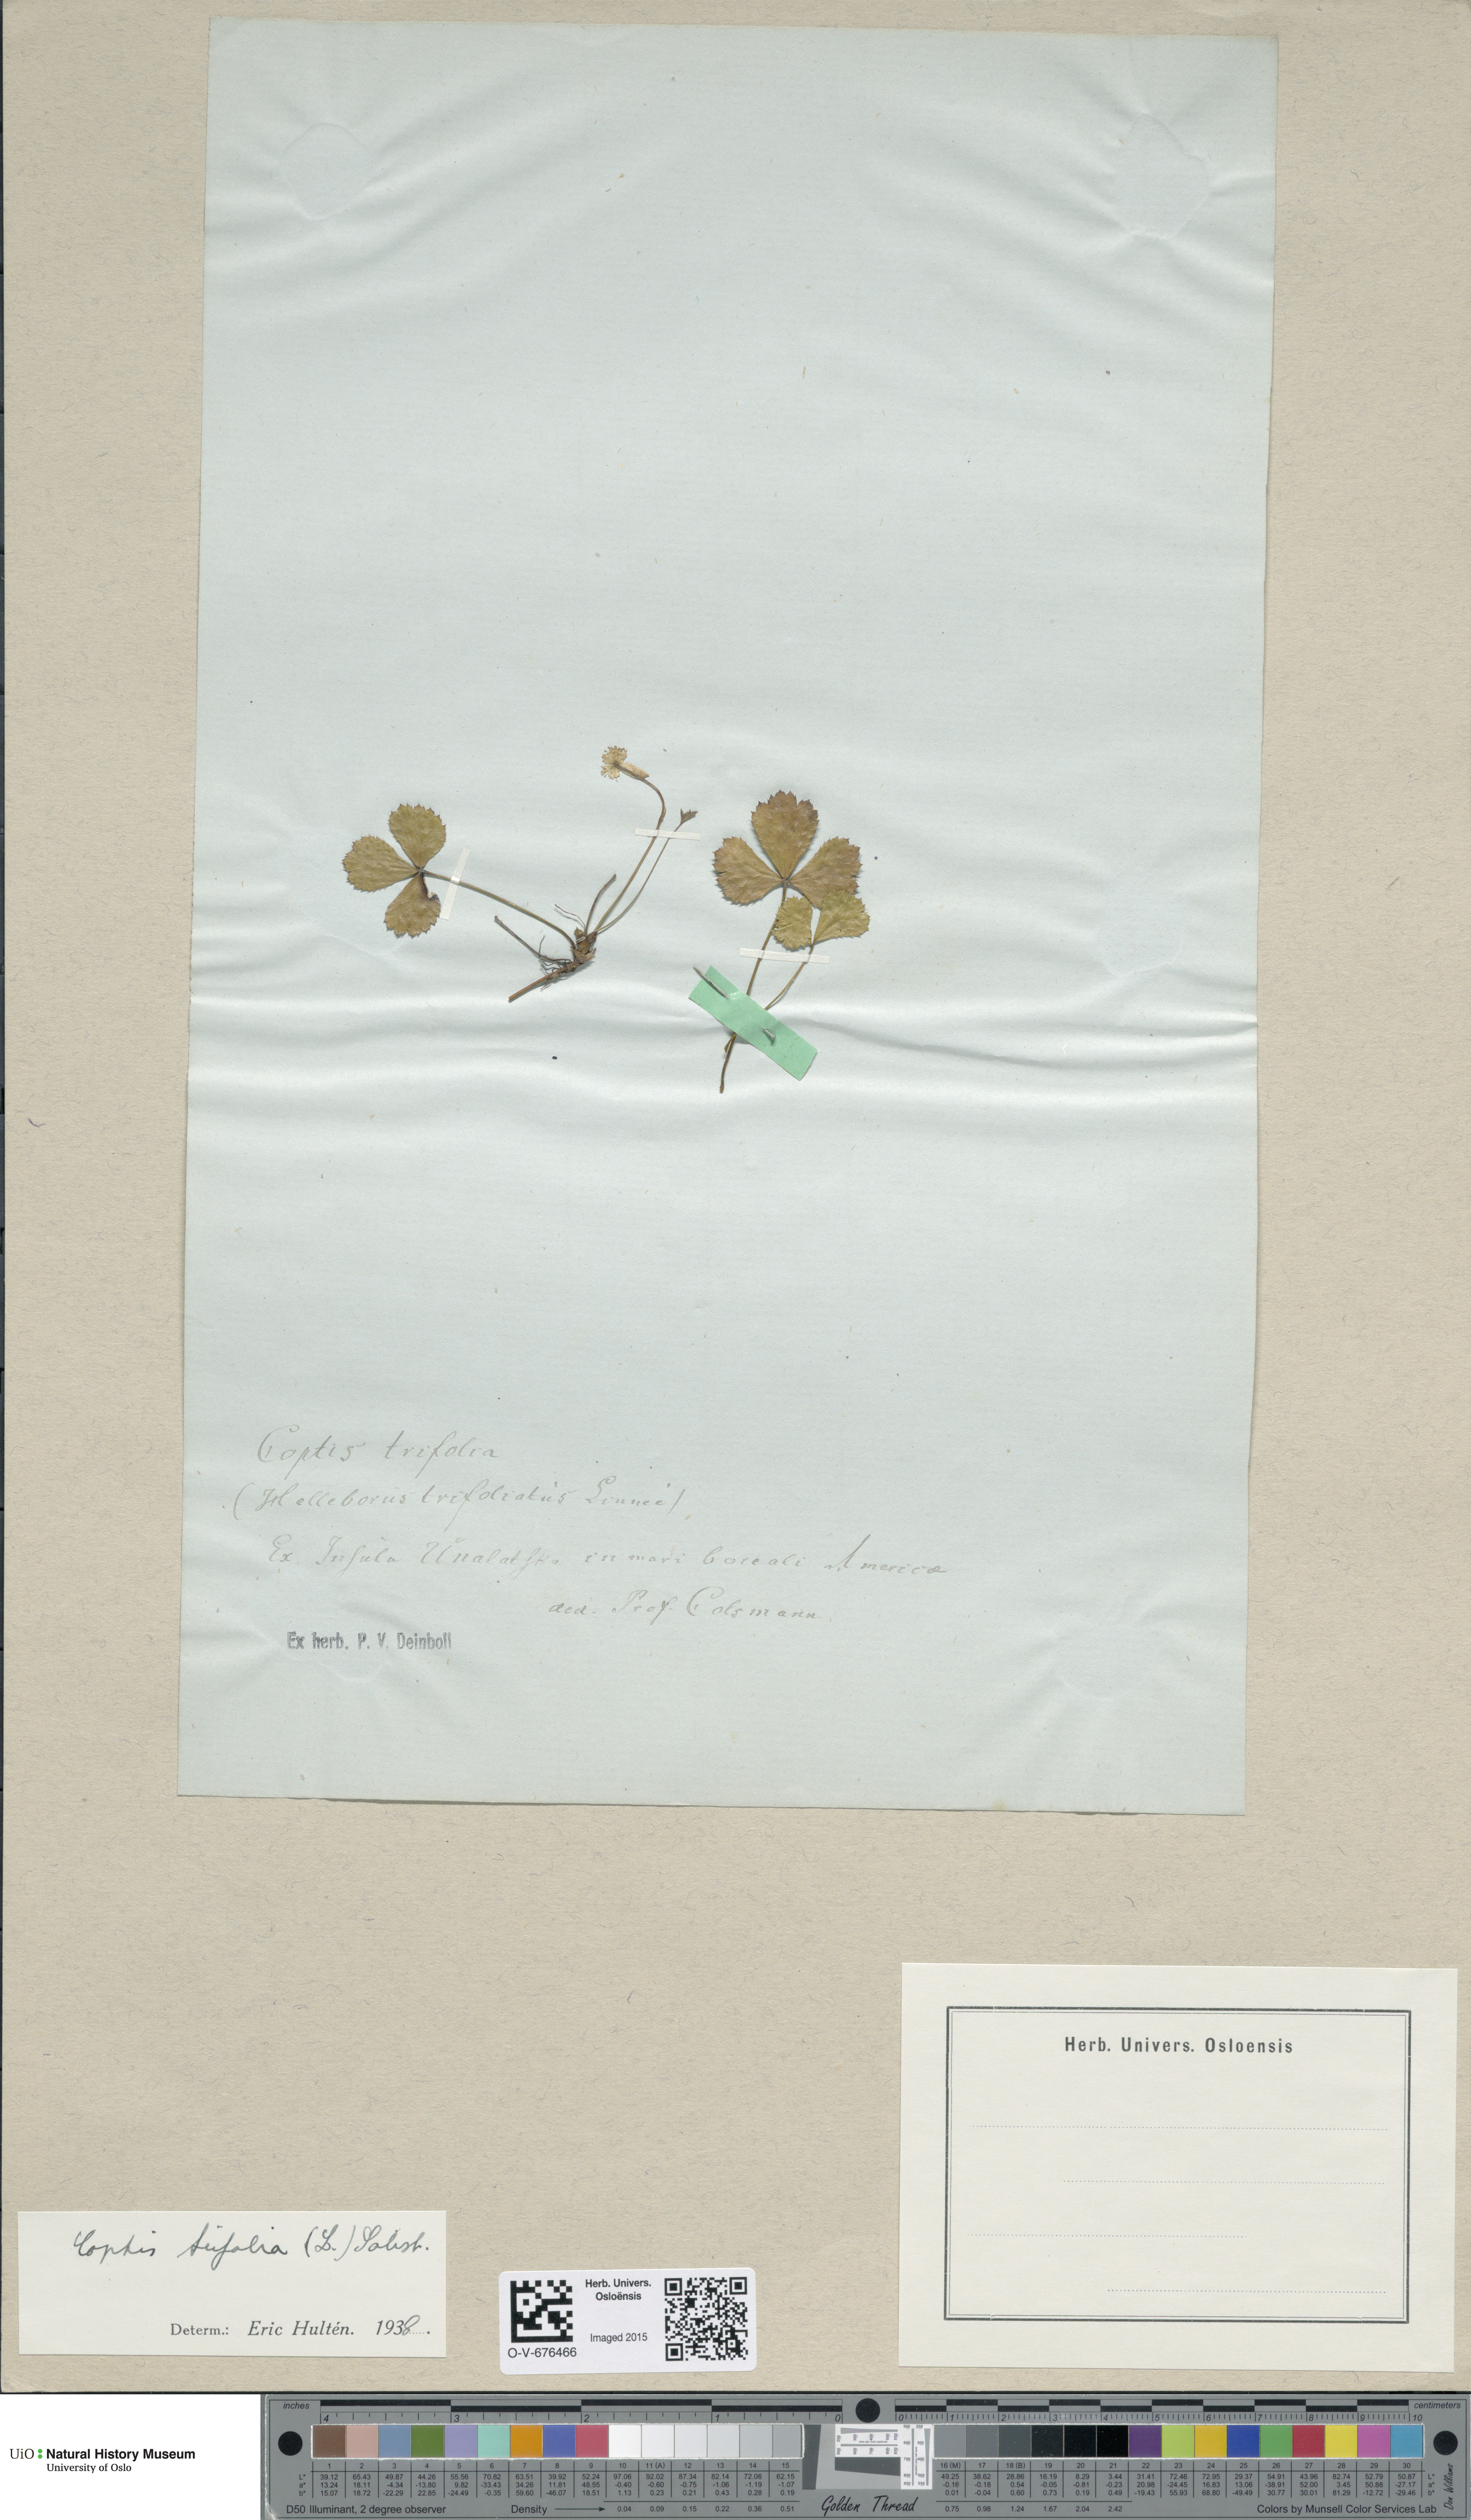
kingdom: Plantae
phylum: Tracheophyta
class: Magnoliopsida
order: Ranunculales
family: Ranunculaceae
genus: Coptis
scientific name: Coptis trifolia
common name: Canker-root
